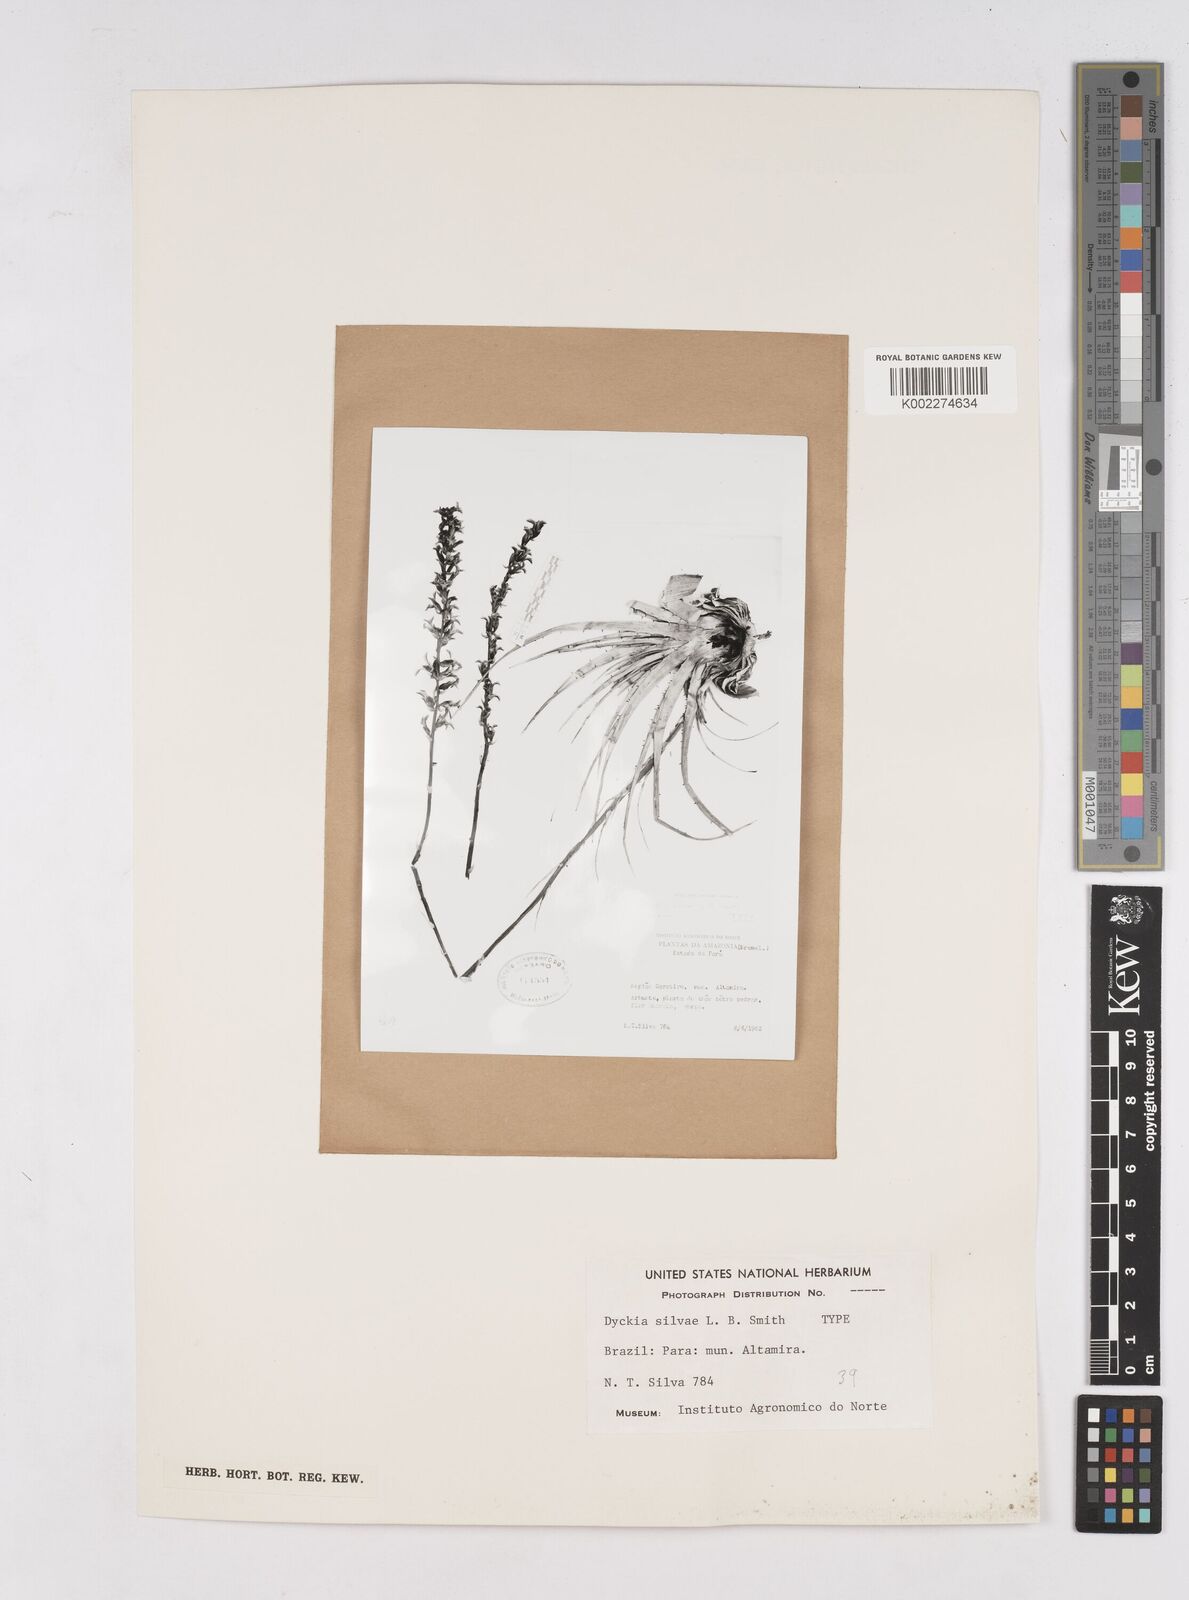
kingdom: Plantae
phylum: Tracheophyta
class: Liliopsida
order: Poales
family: Bromeliaceae
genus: Dyckia
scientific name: Dyckia silvae
